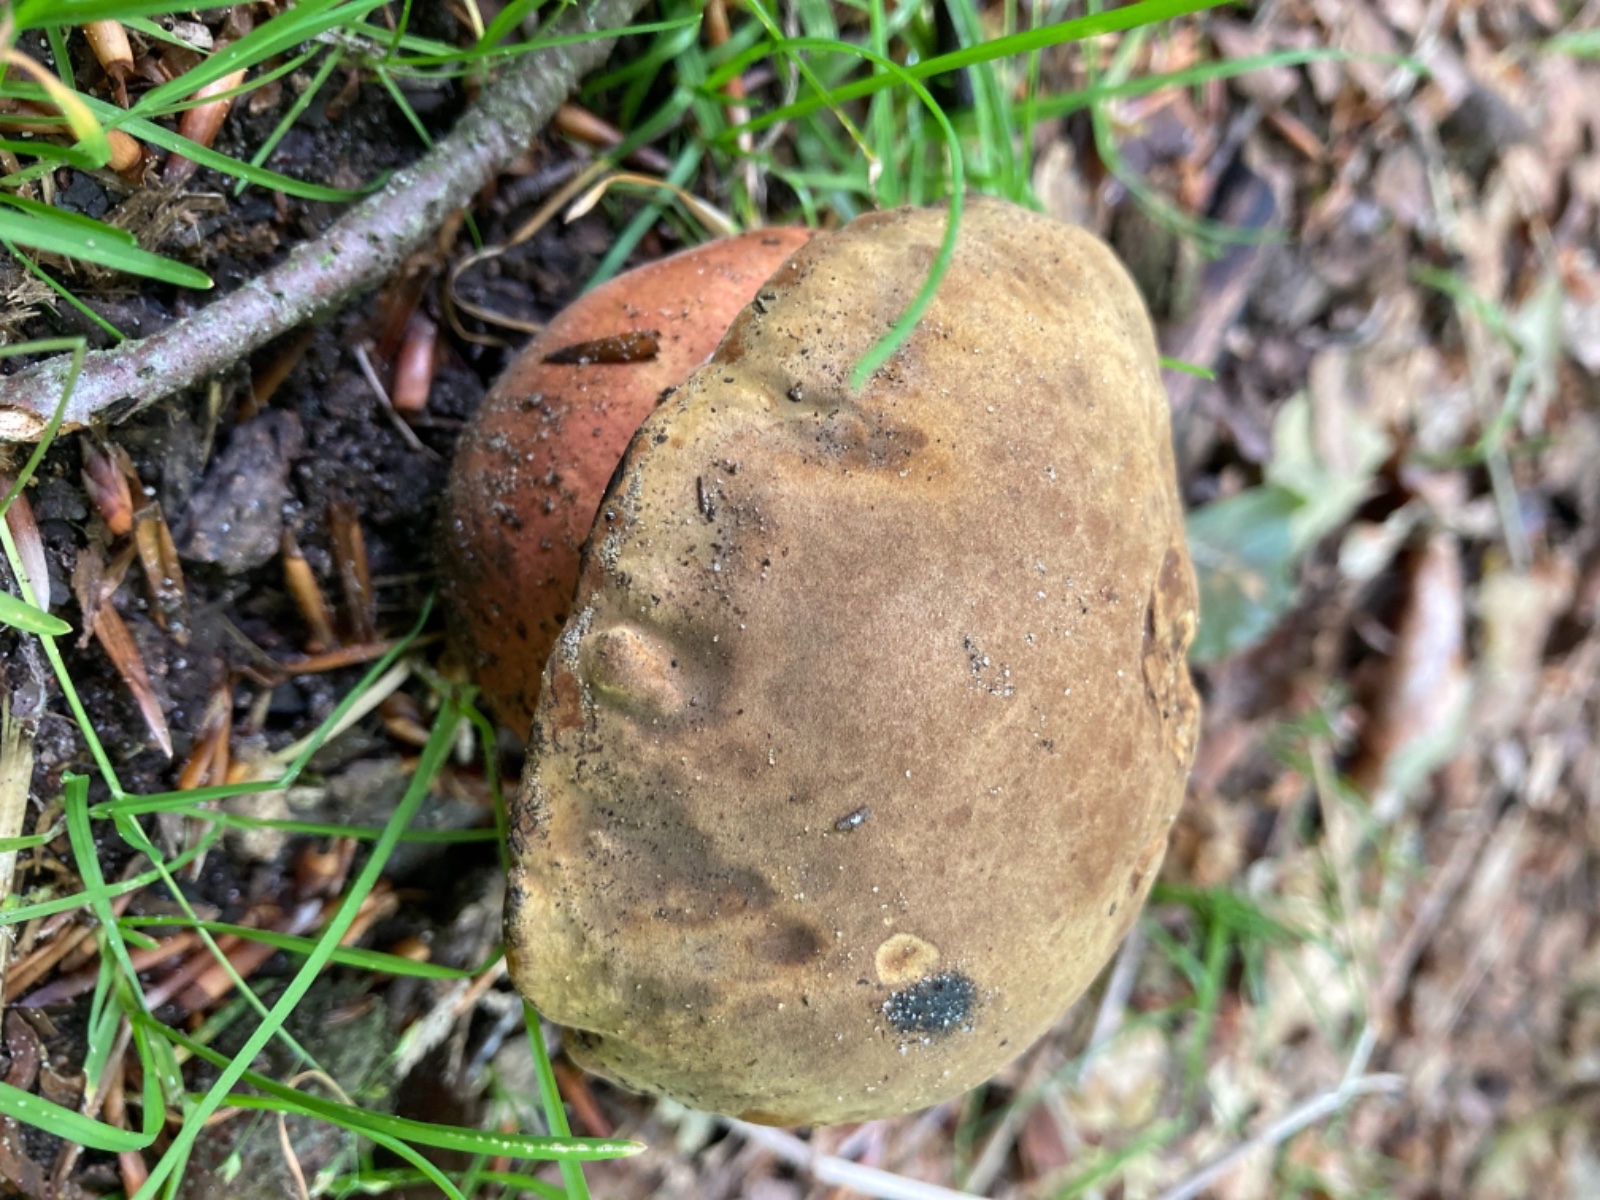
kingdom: Fungi
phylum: Basidiomycota
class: Agaricomycetes
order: Boletales
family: Boletaceae
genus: Neoboletus
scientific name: Neoboletus erythropus
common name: punktstokket indigorørhat
